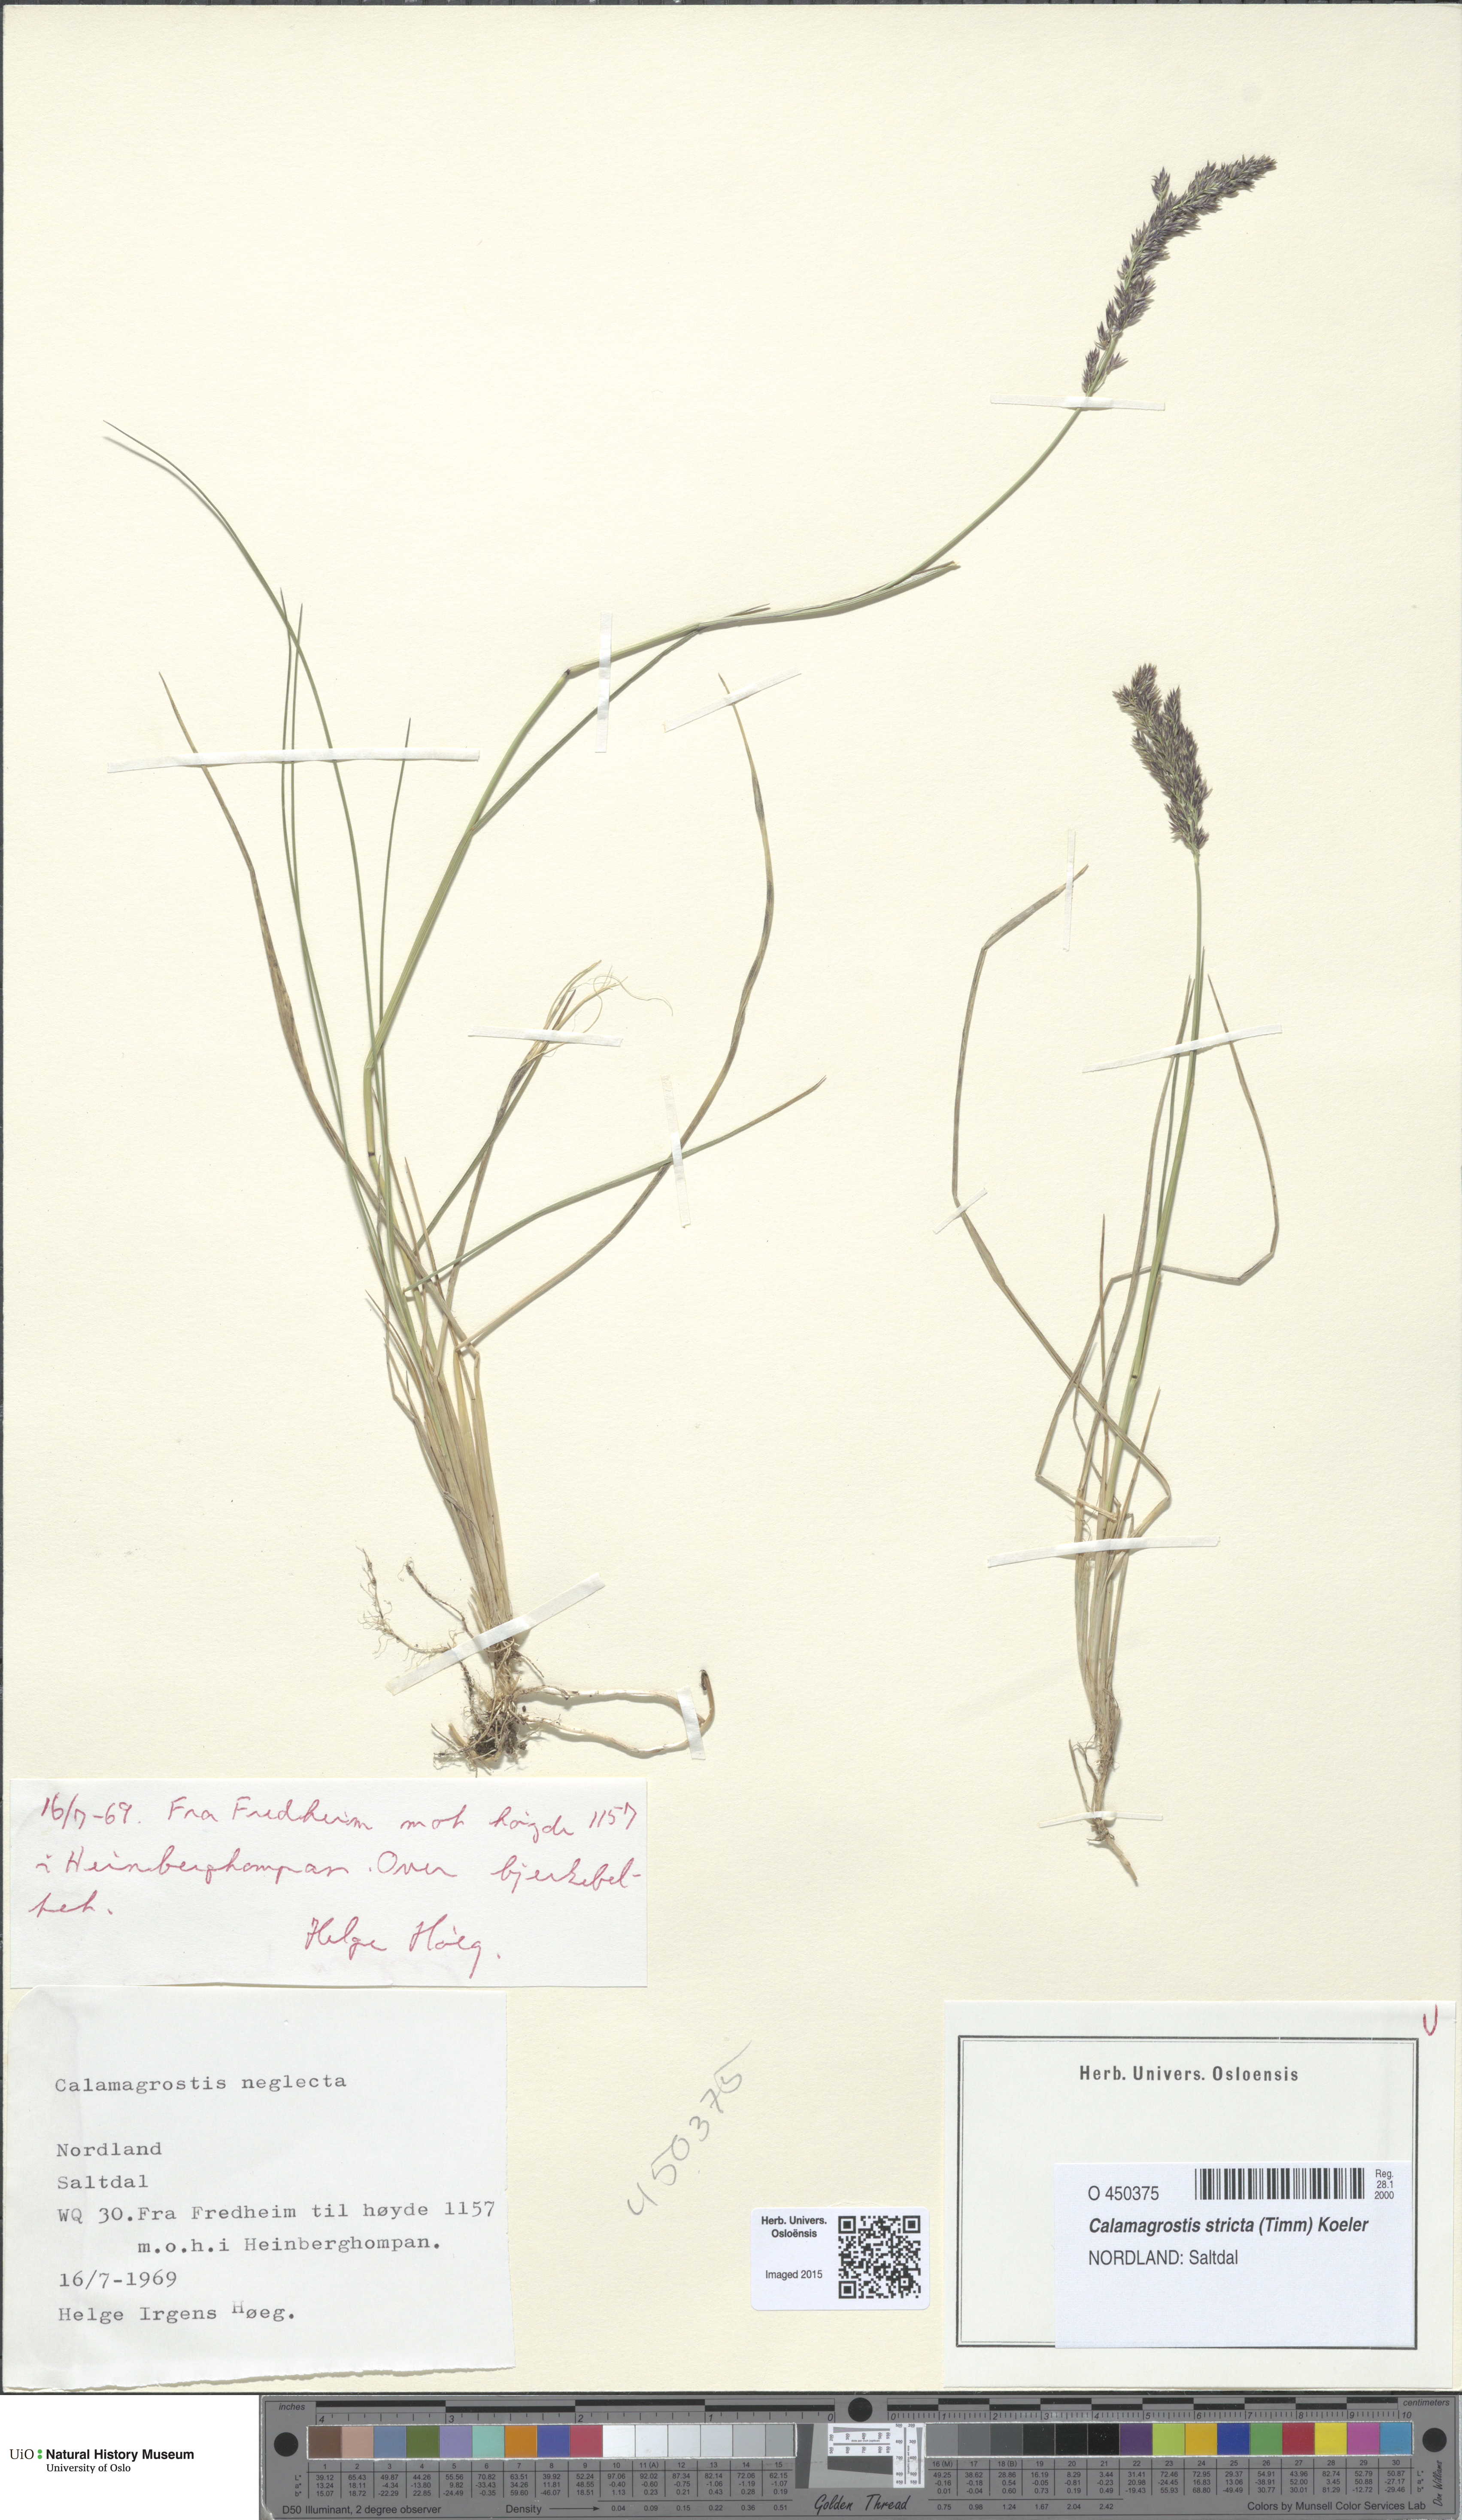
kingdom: Plantae
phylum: Tracheophyta
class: Liliopsida
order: Poales
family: Poaceae
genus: Achnatherum
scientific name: Achnatherum calamagrostis
